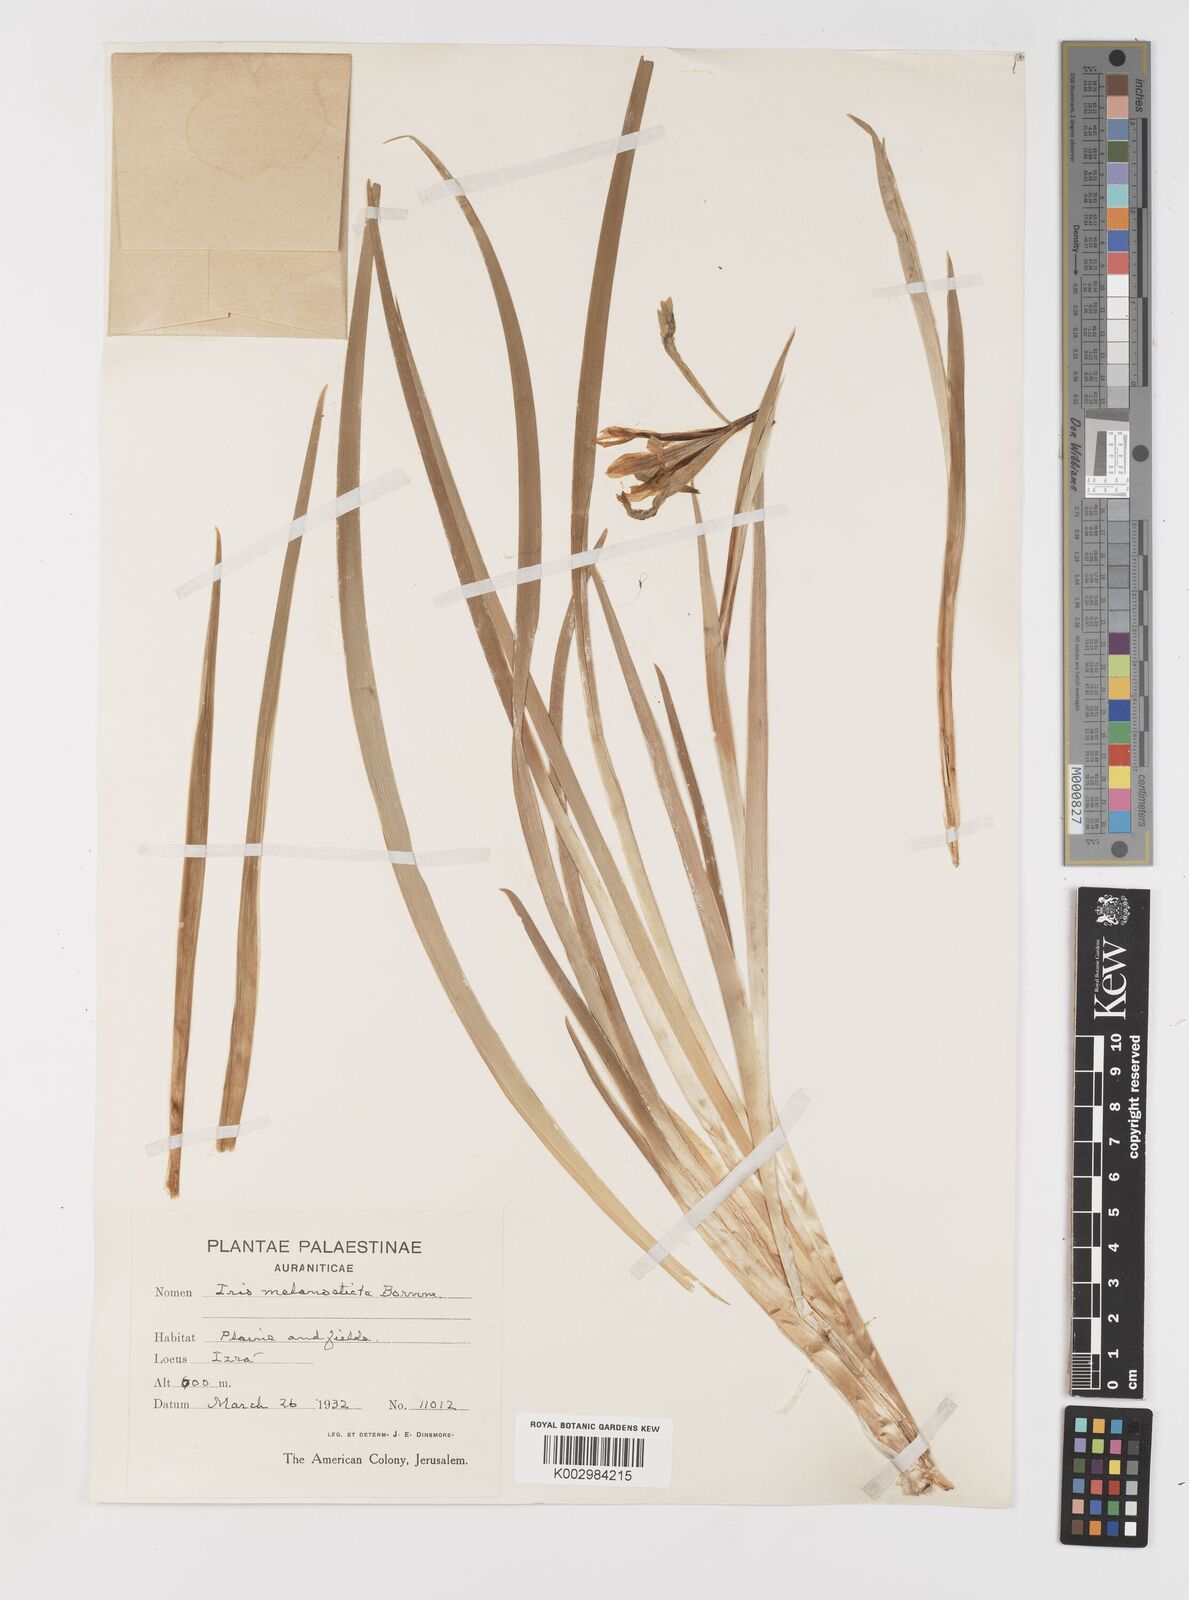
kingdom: Plantae
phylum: Tracheophyta
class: Liliopsida
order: Asparagales
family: Iridaceae
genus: Iris
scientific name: Iris grant-duffii
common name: Grant duff's iris
